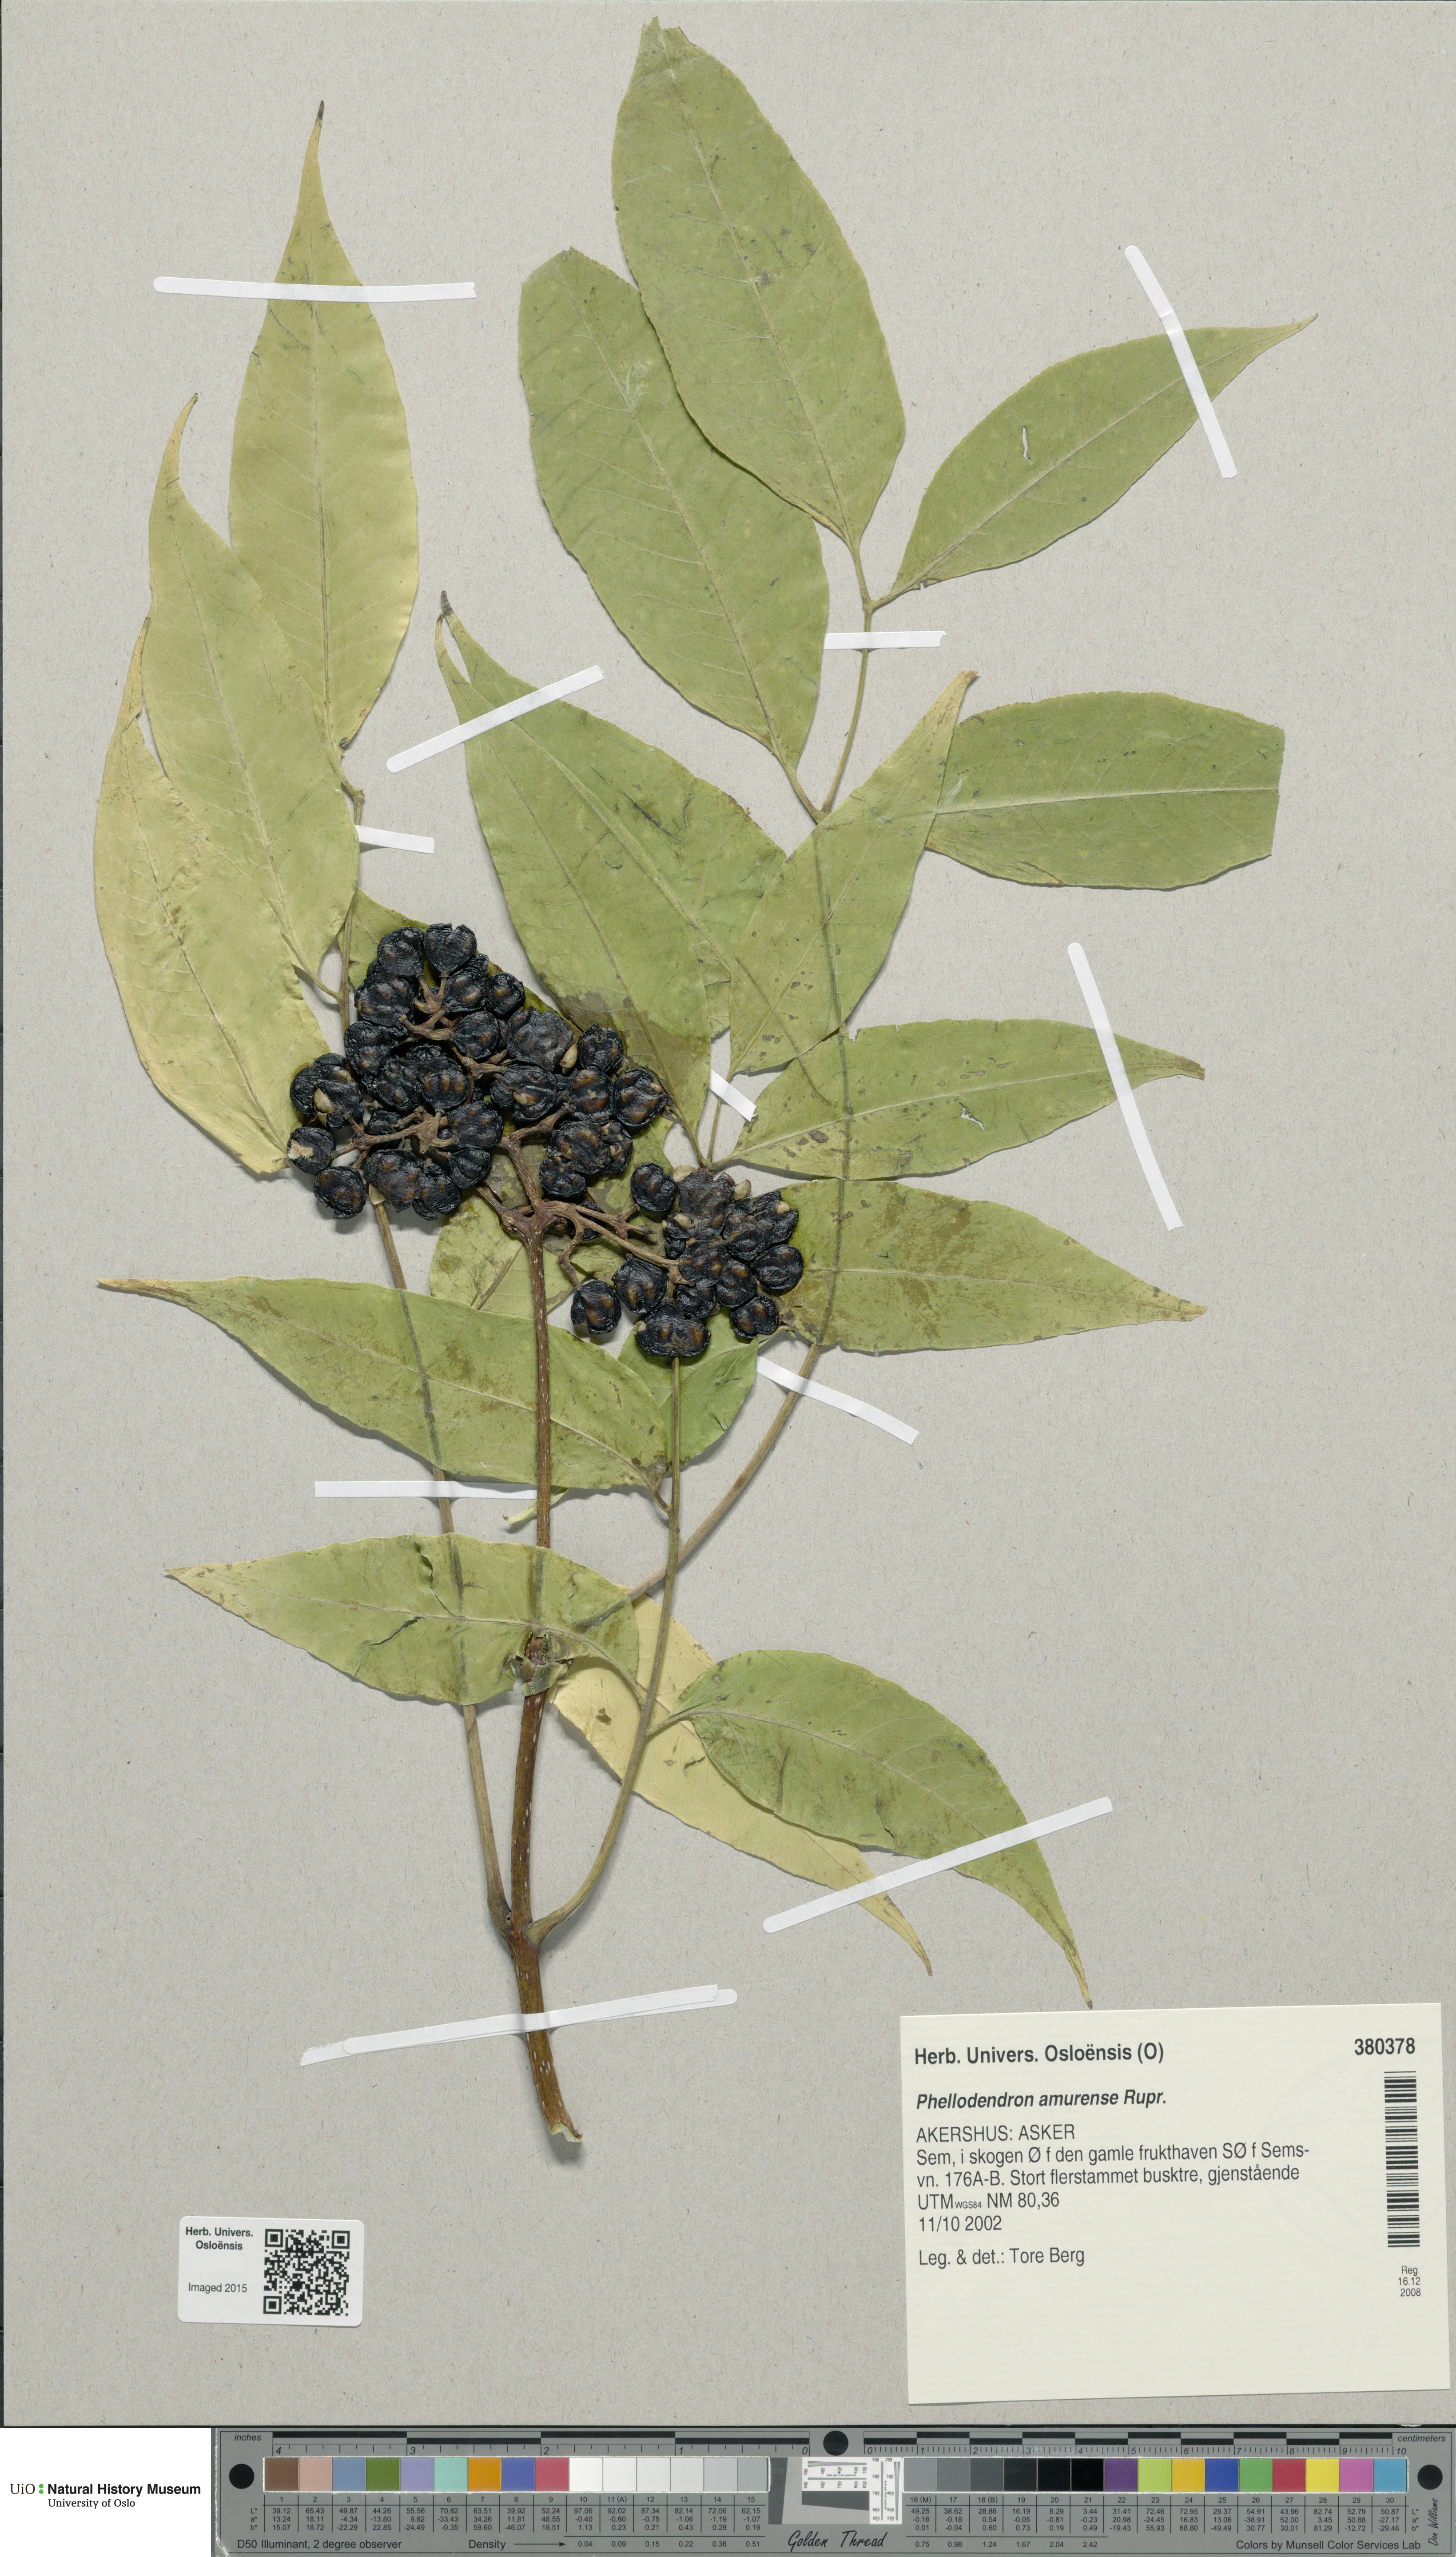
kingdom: Plantae
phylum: Tracheophyta
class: Magnoliopsida
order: Sapindales
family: Rutaceae
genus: Phellodendron
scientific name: Phellodendron amurense
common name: Amur corktree
